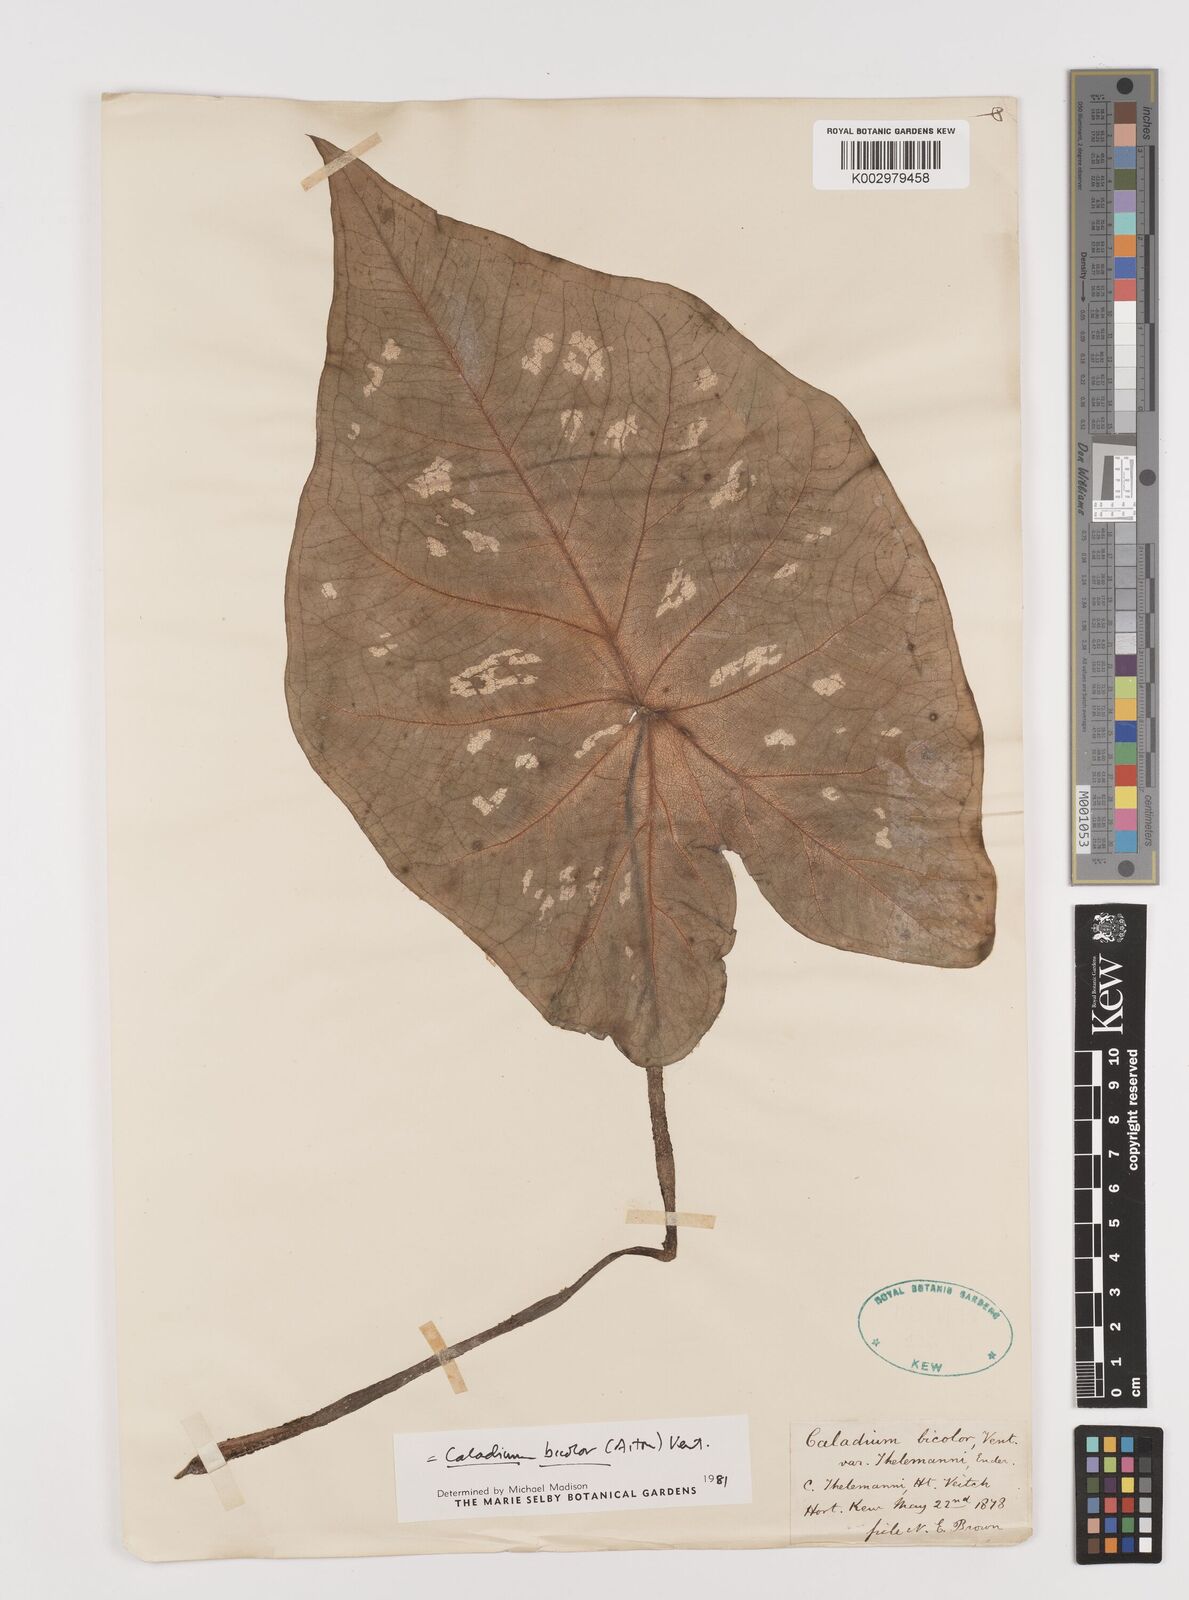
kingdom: Plantae
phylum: Tracheophyta
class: Liliopsida
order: Alismatales
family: Araceae
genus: Caladium
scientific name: Caladium bicolor
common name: Artist's pallet
